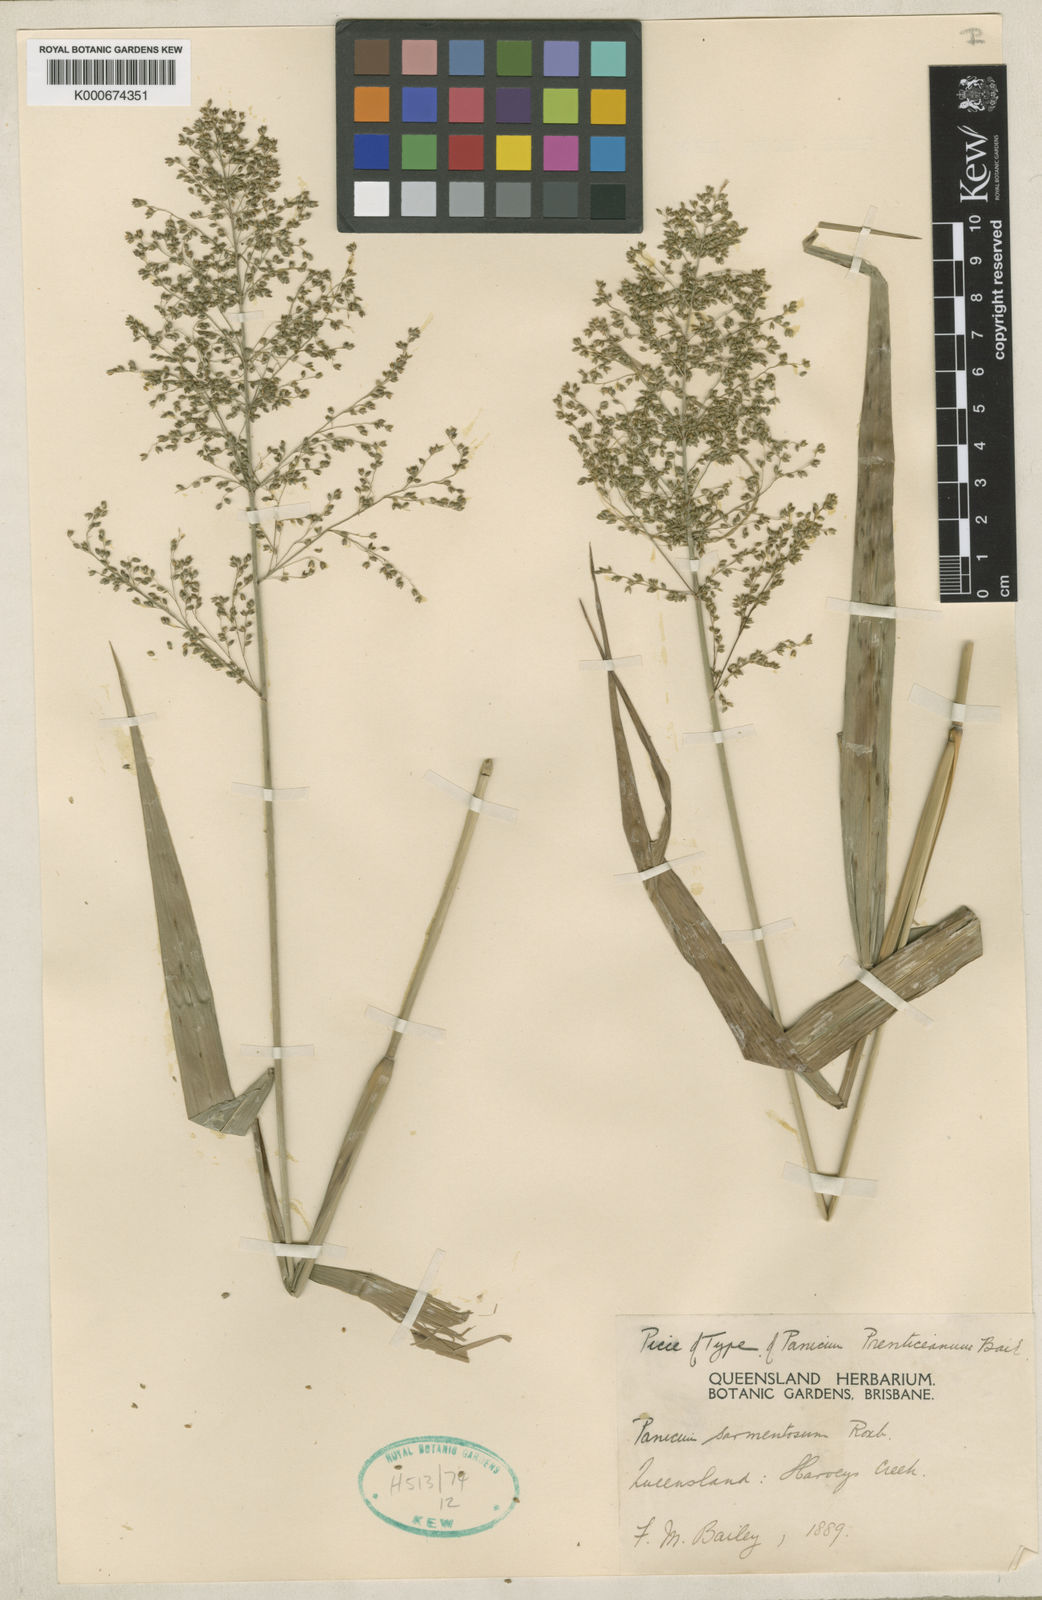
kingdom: Plantae
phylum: Tracheophyta
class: Liliopsida
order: Poales
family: Poaceae
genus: Panicum
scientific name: Panicum sarmentosum
